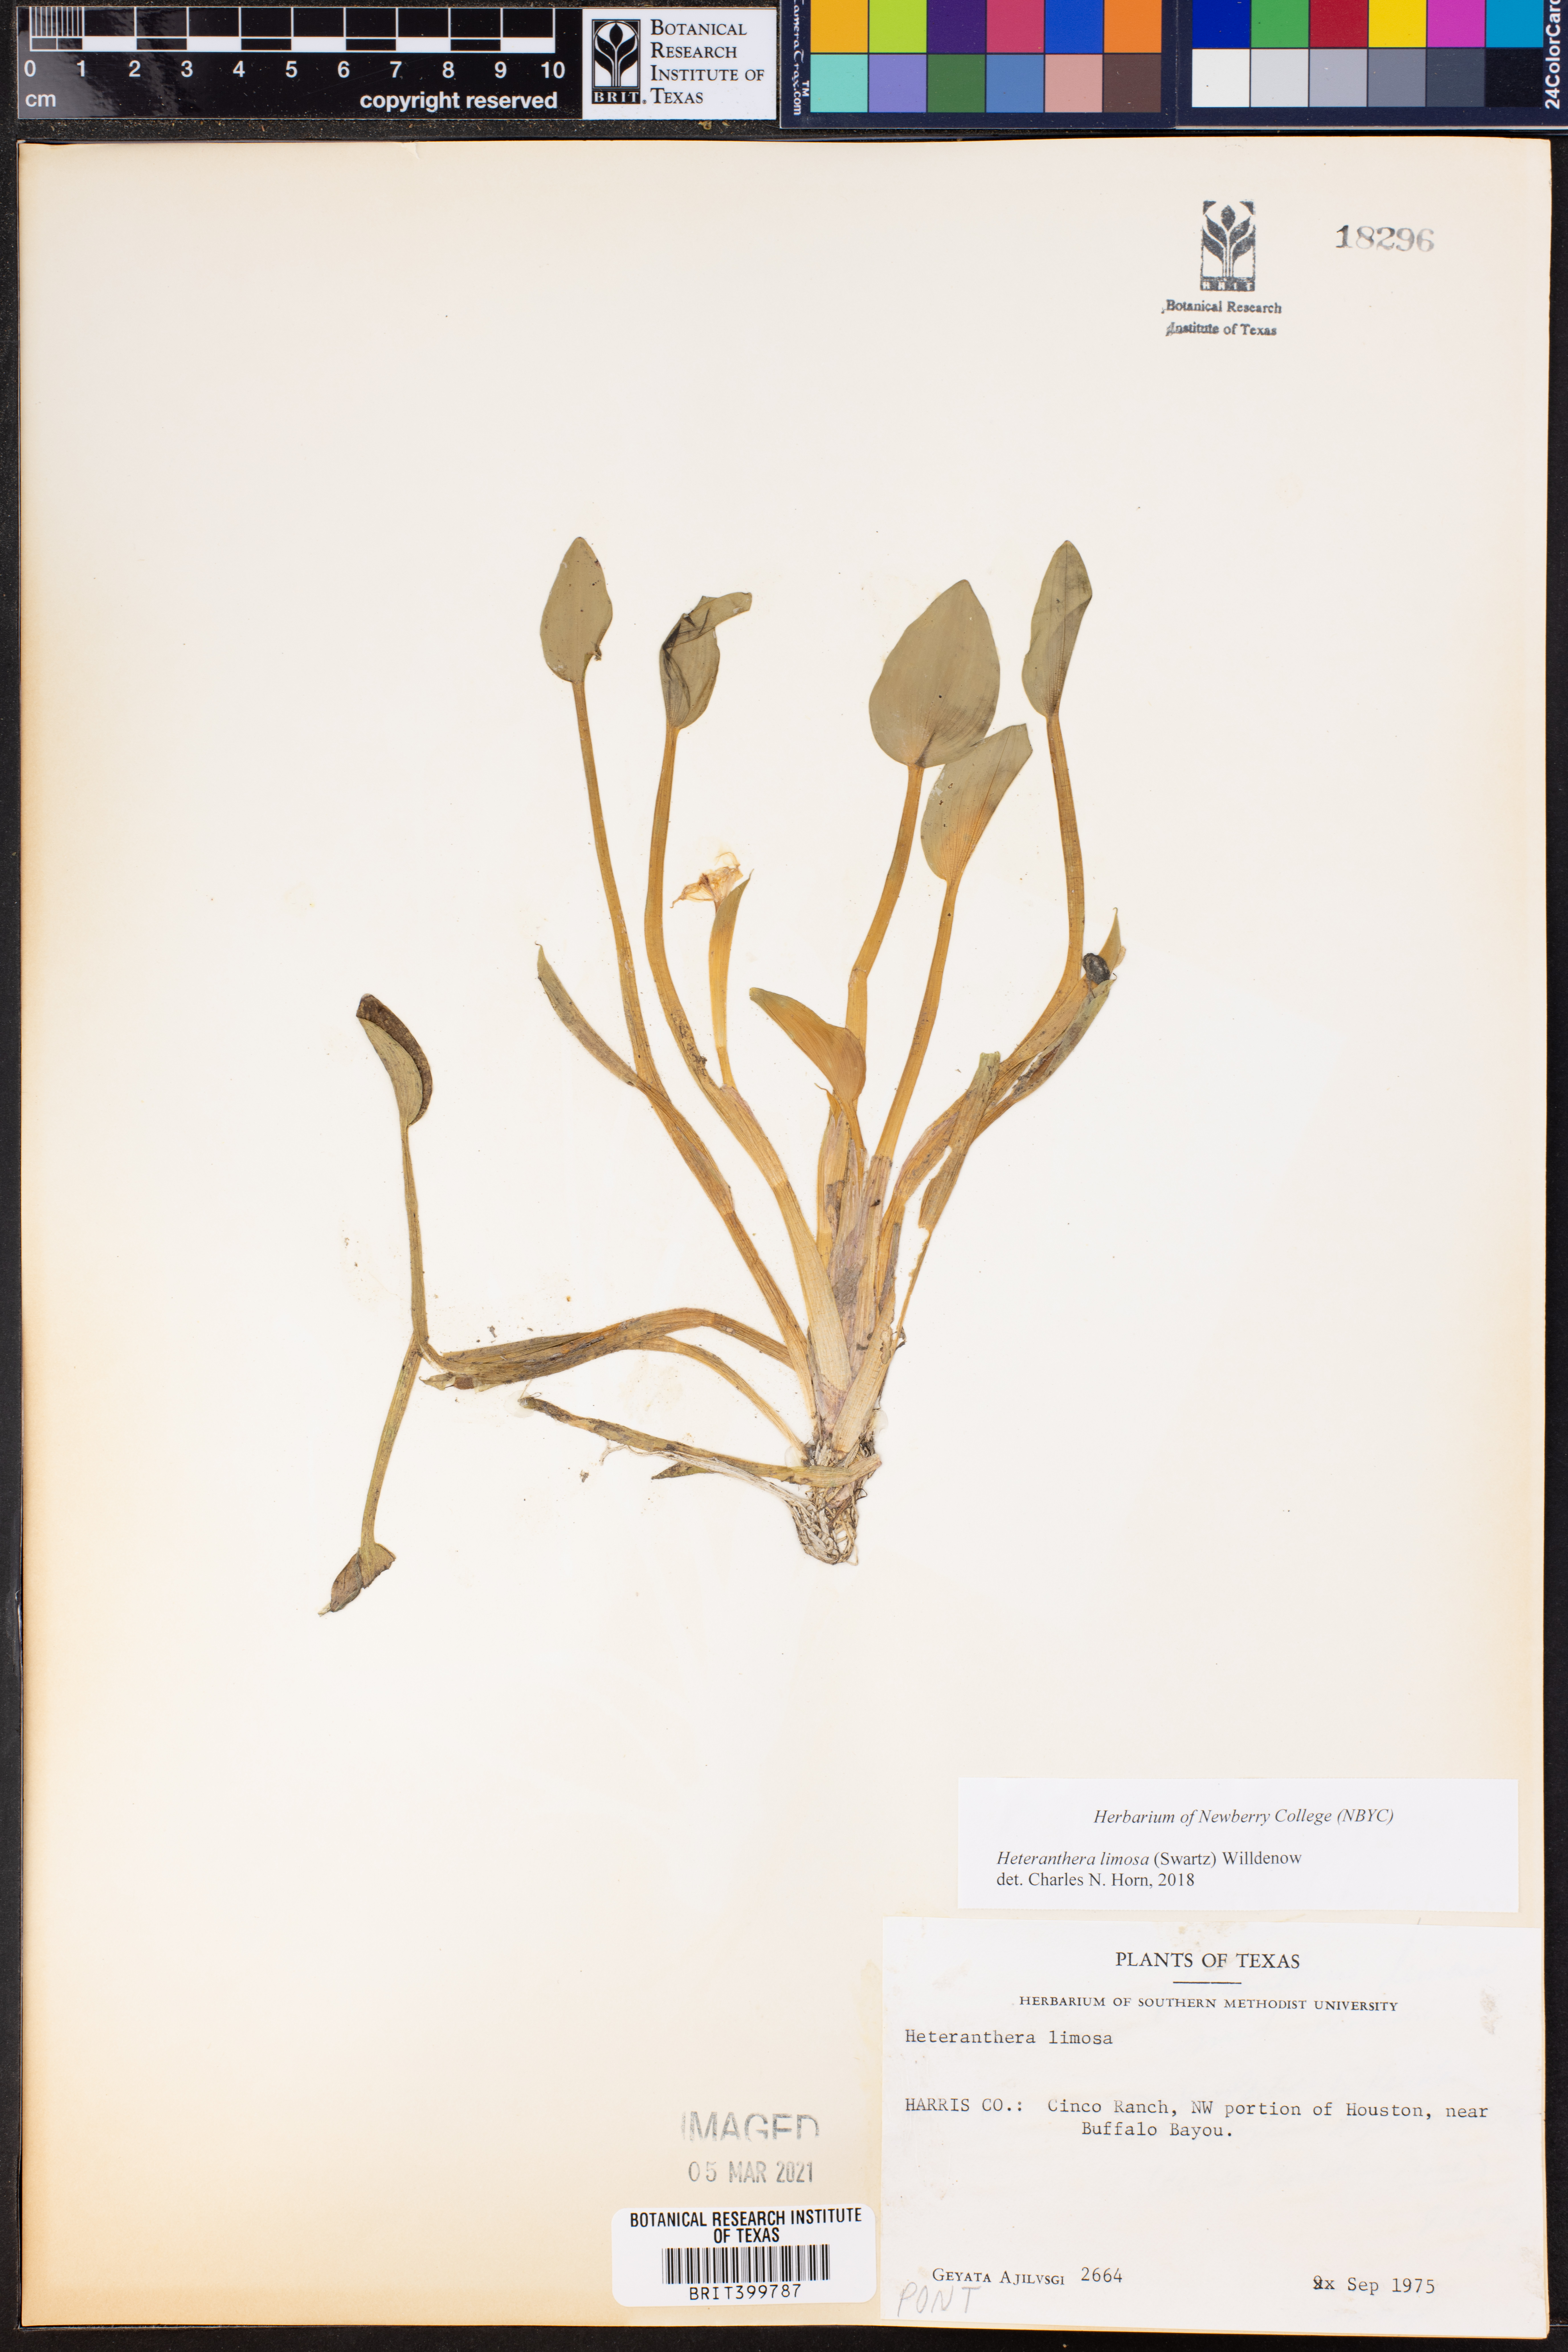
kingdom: Plantae
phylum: Tracheophyta
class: Liliopsida
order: Commelinales
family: Pontederiaceae
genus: Heteranthera
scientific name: Heteranthera limosa
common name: Blue mud-plantain
